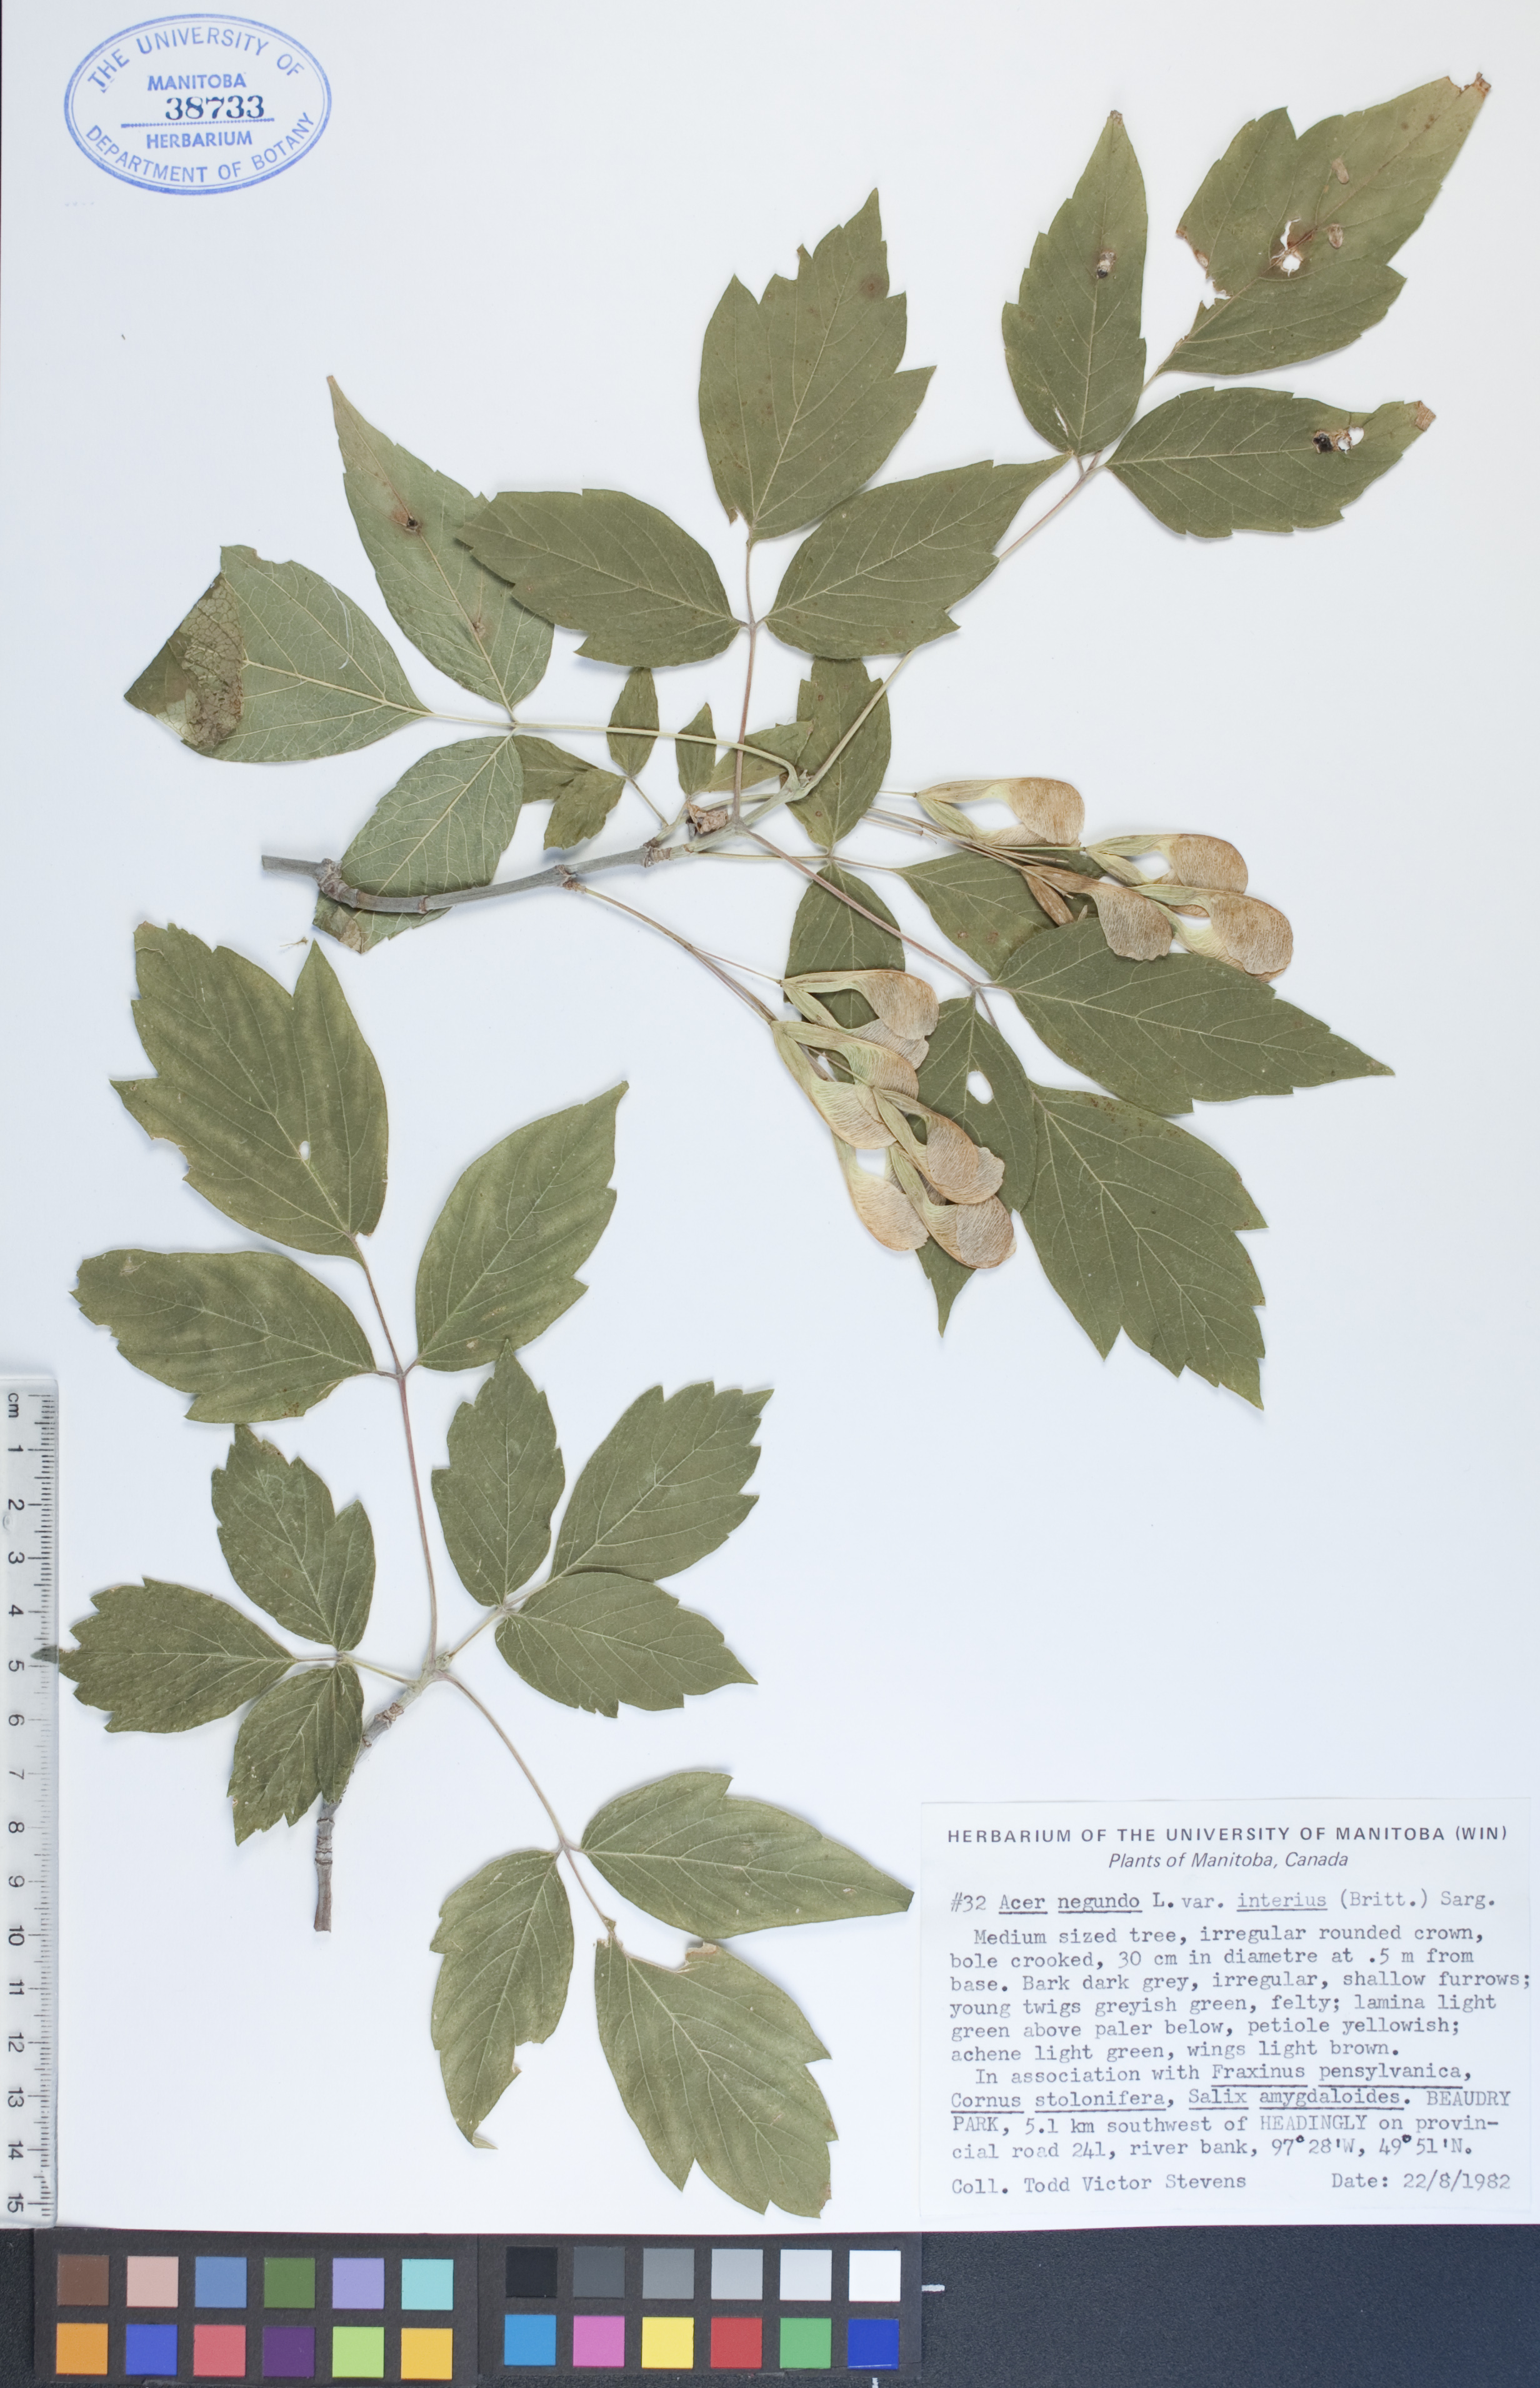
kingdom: Plantae
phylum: Tracheophyta
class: Magnoliopsida
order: Sapindales
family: Sapindaceae
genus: Acer
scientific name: Acer negundo
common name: Ashleaf maple
